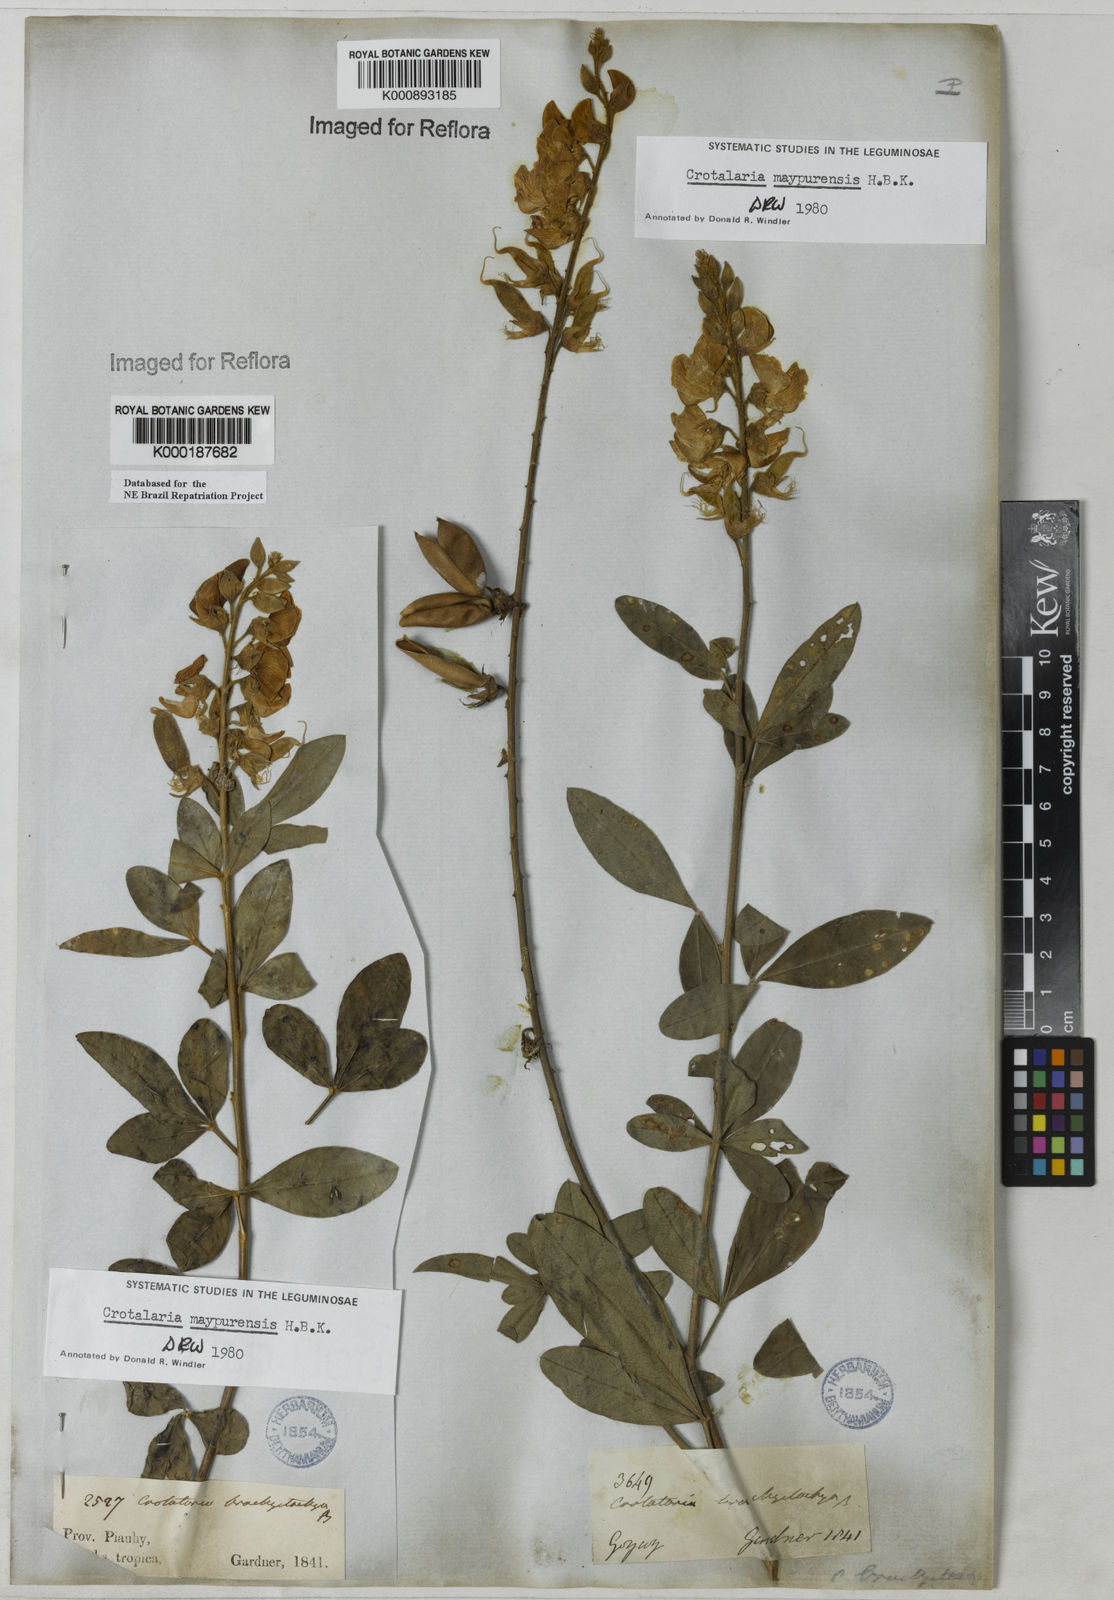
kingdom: Plantae
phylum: Tracheophyta
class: Magnoliopsida
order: Fabales
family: Fabaceae
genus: Crotalaria
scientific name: Crotalaria maypurensis
